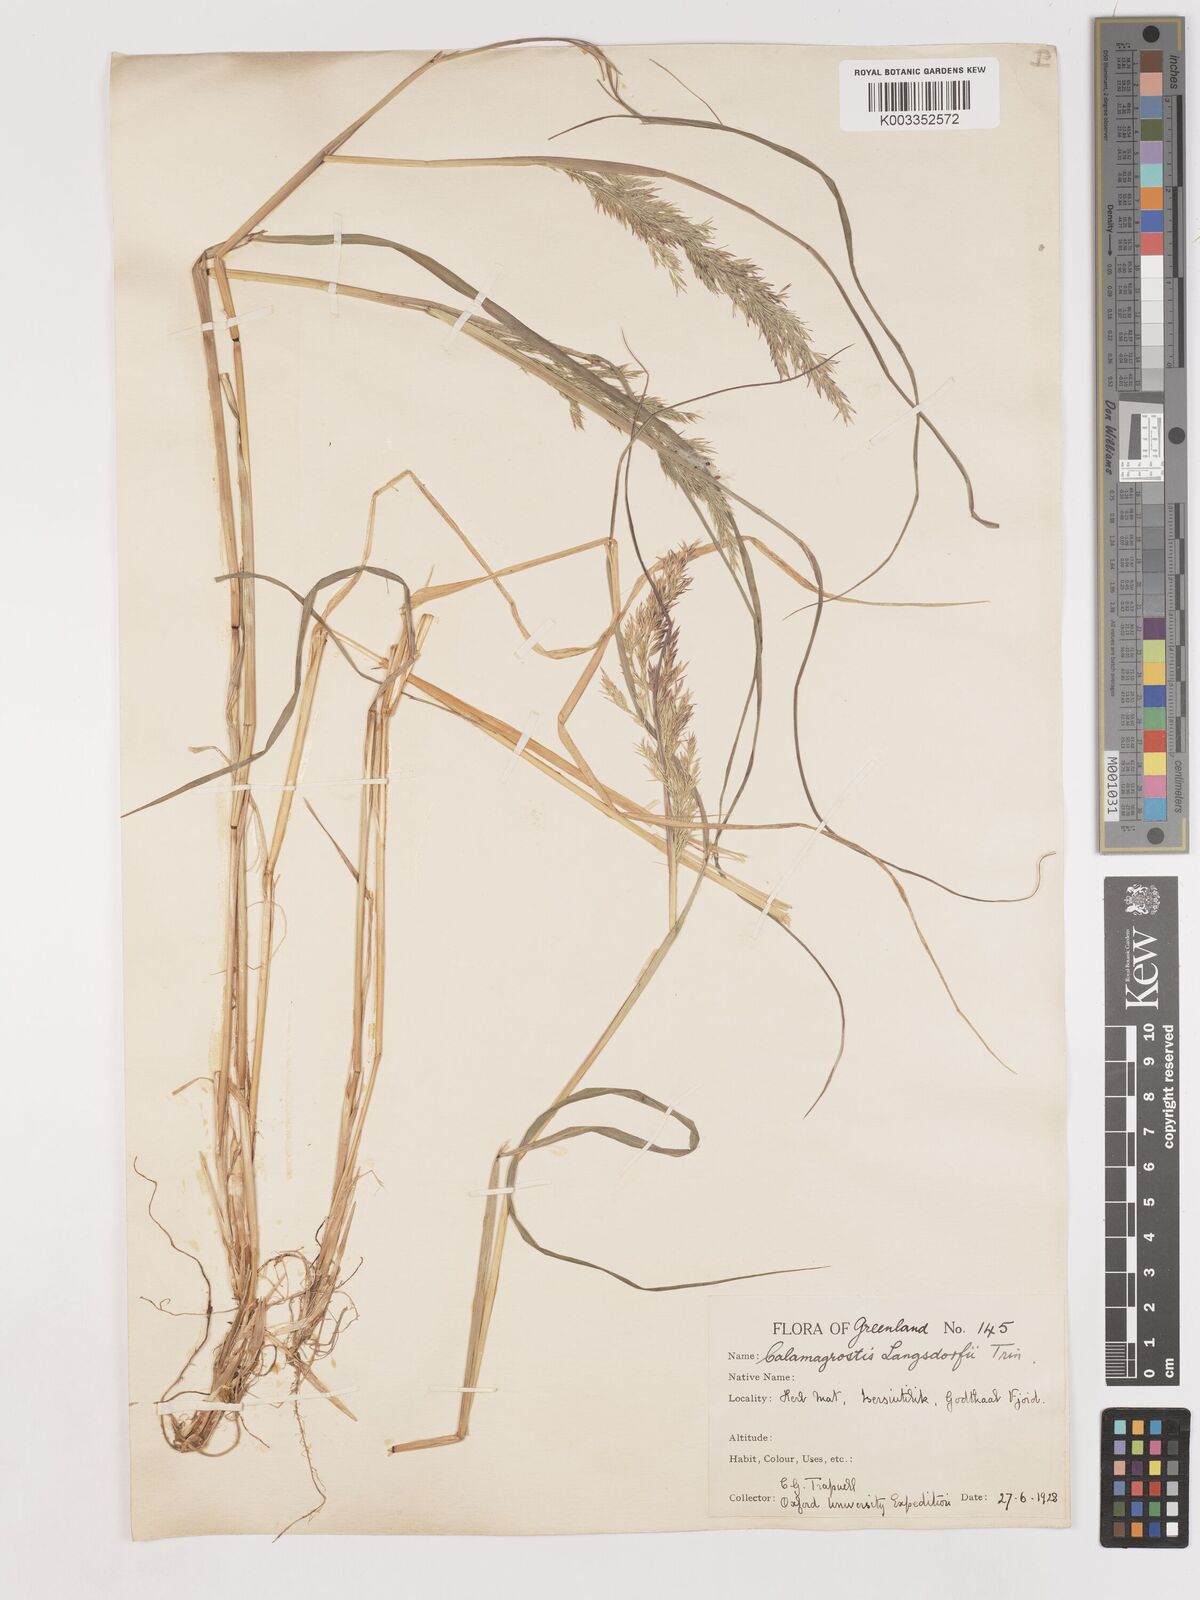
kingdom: Plantae
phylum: Tracheophyta
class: Liliopsida
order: Poales
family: Poaceae
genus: Calamagrostis
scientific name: Calamagrostis canadensis
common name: Canada bluejoint
